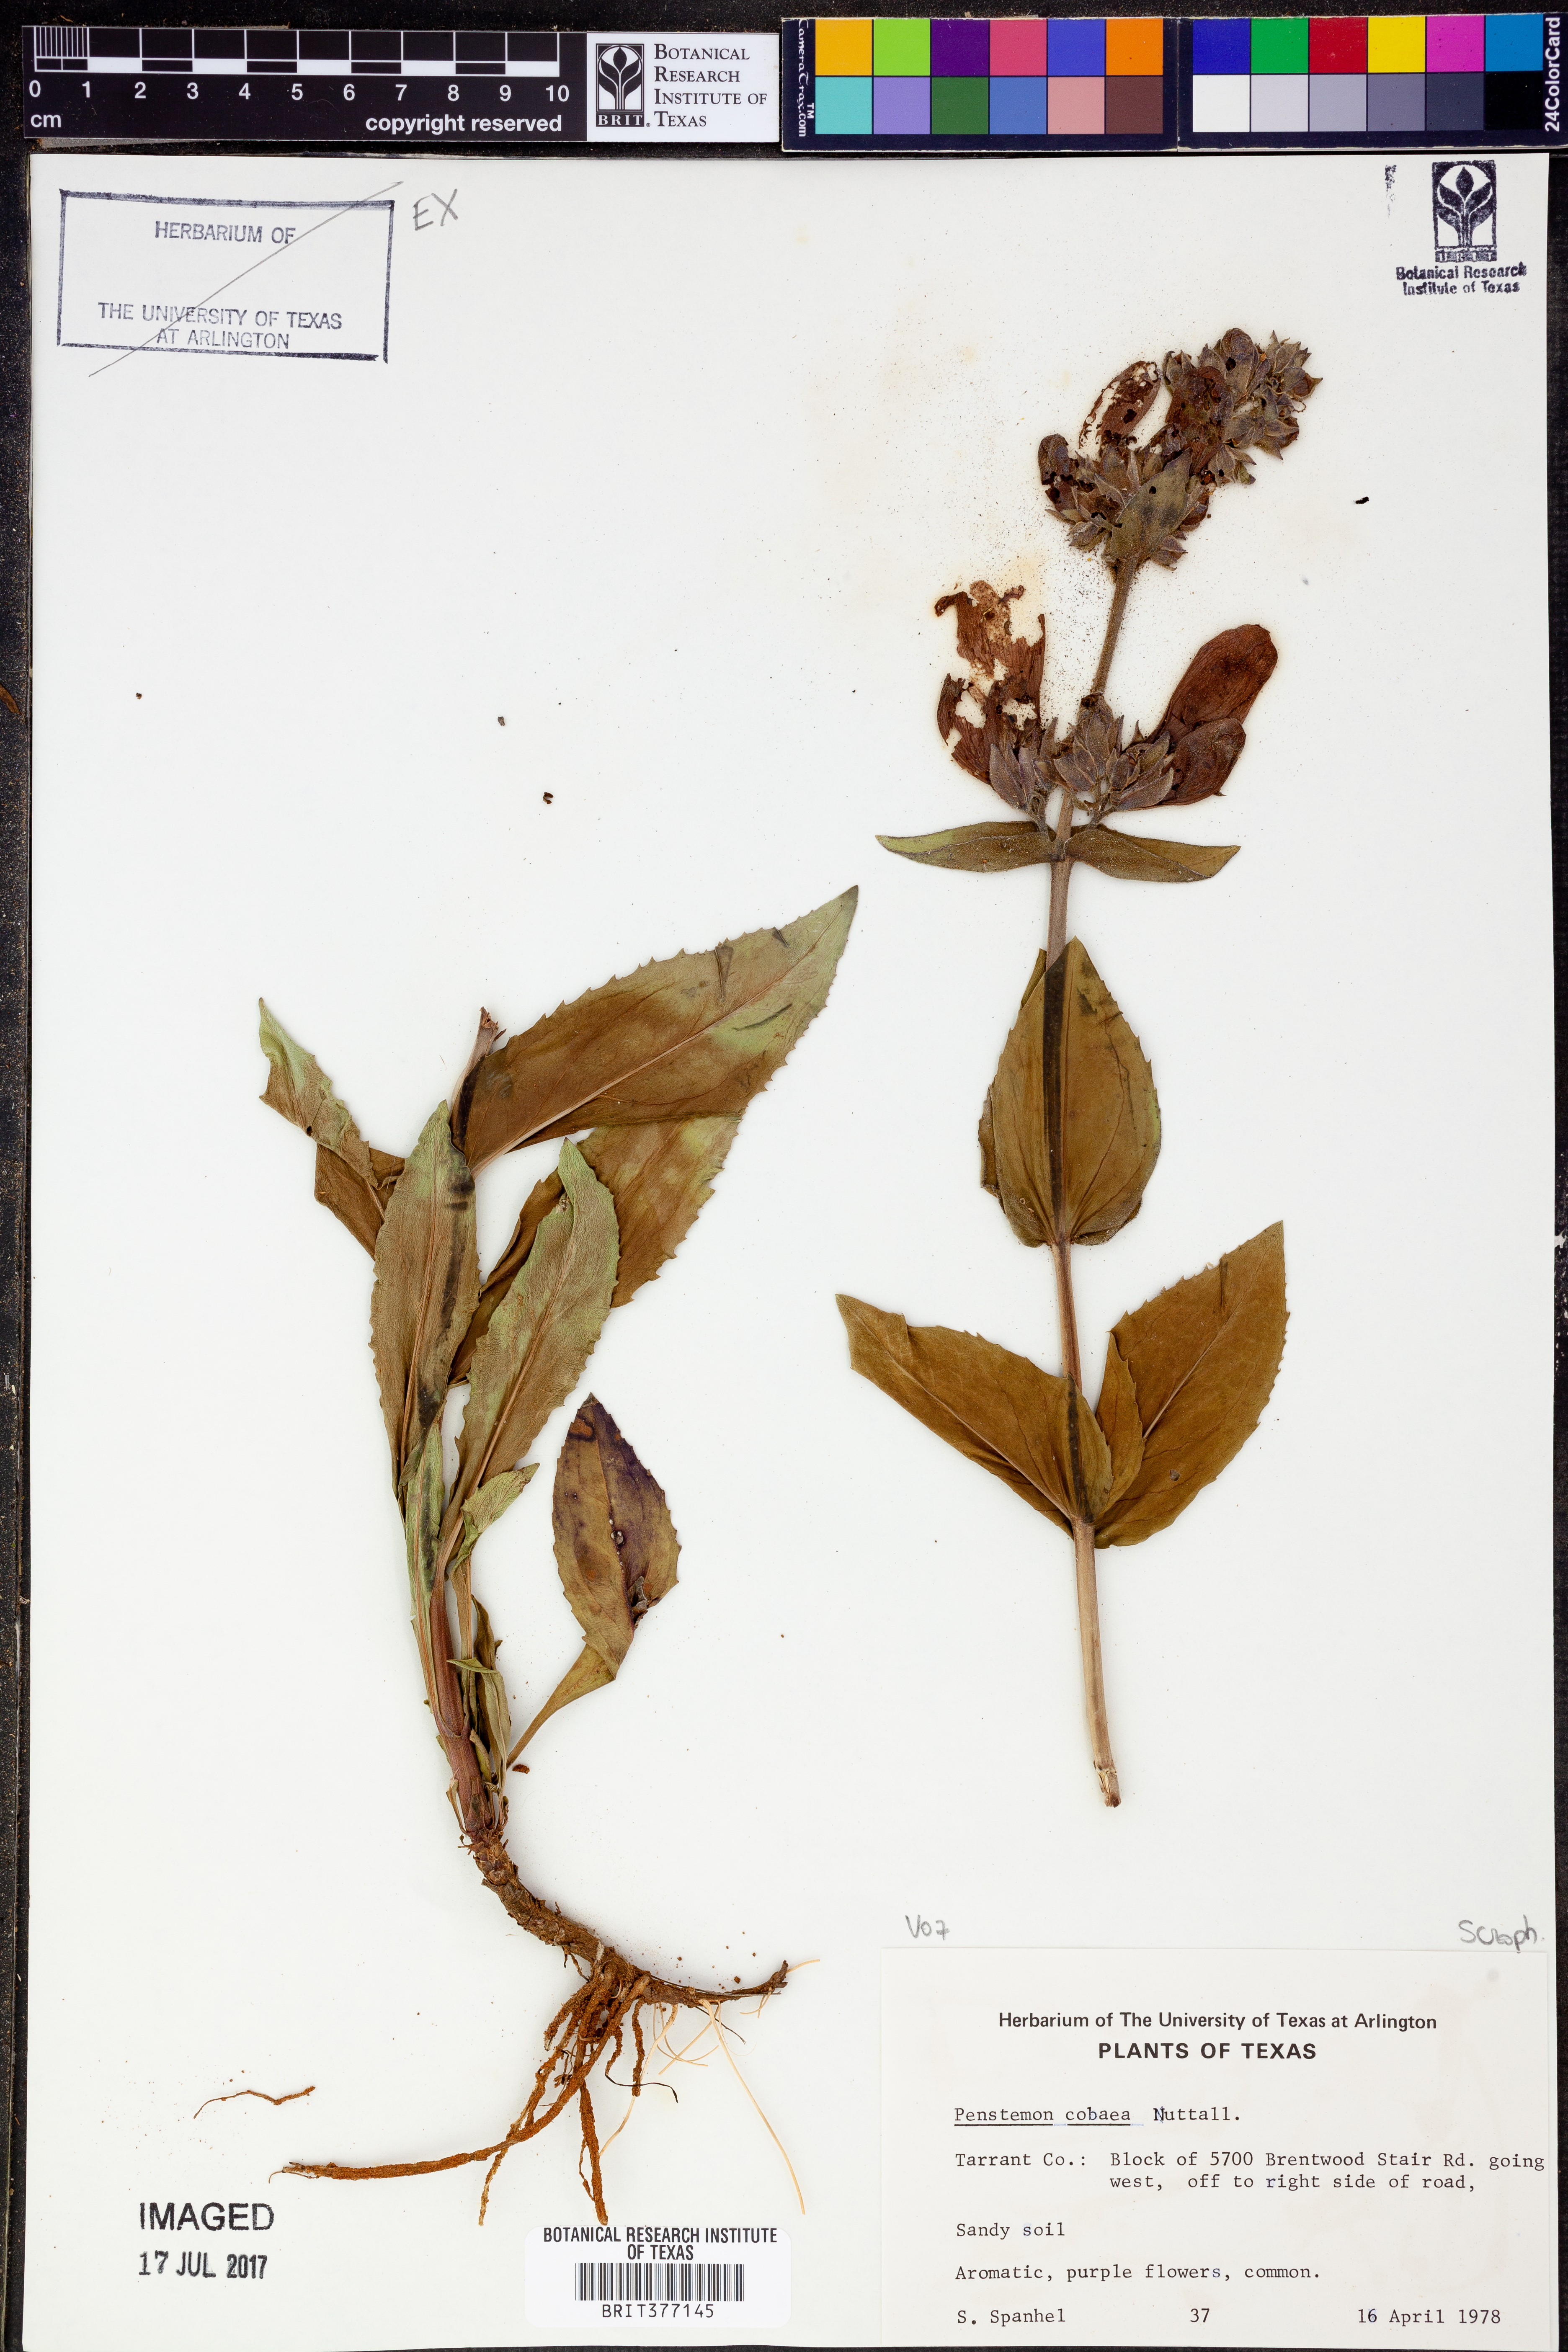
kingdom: Plantae
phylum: Tracheophyta
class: Magnoliopsida
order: Lamiales
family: Plantaginaceae
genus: Penstemon
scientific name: Penstemon cobaea
